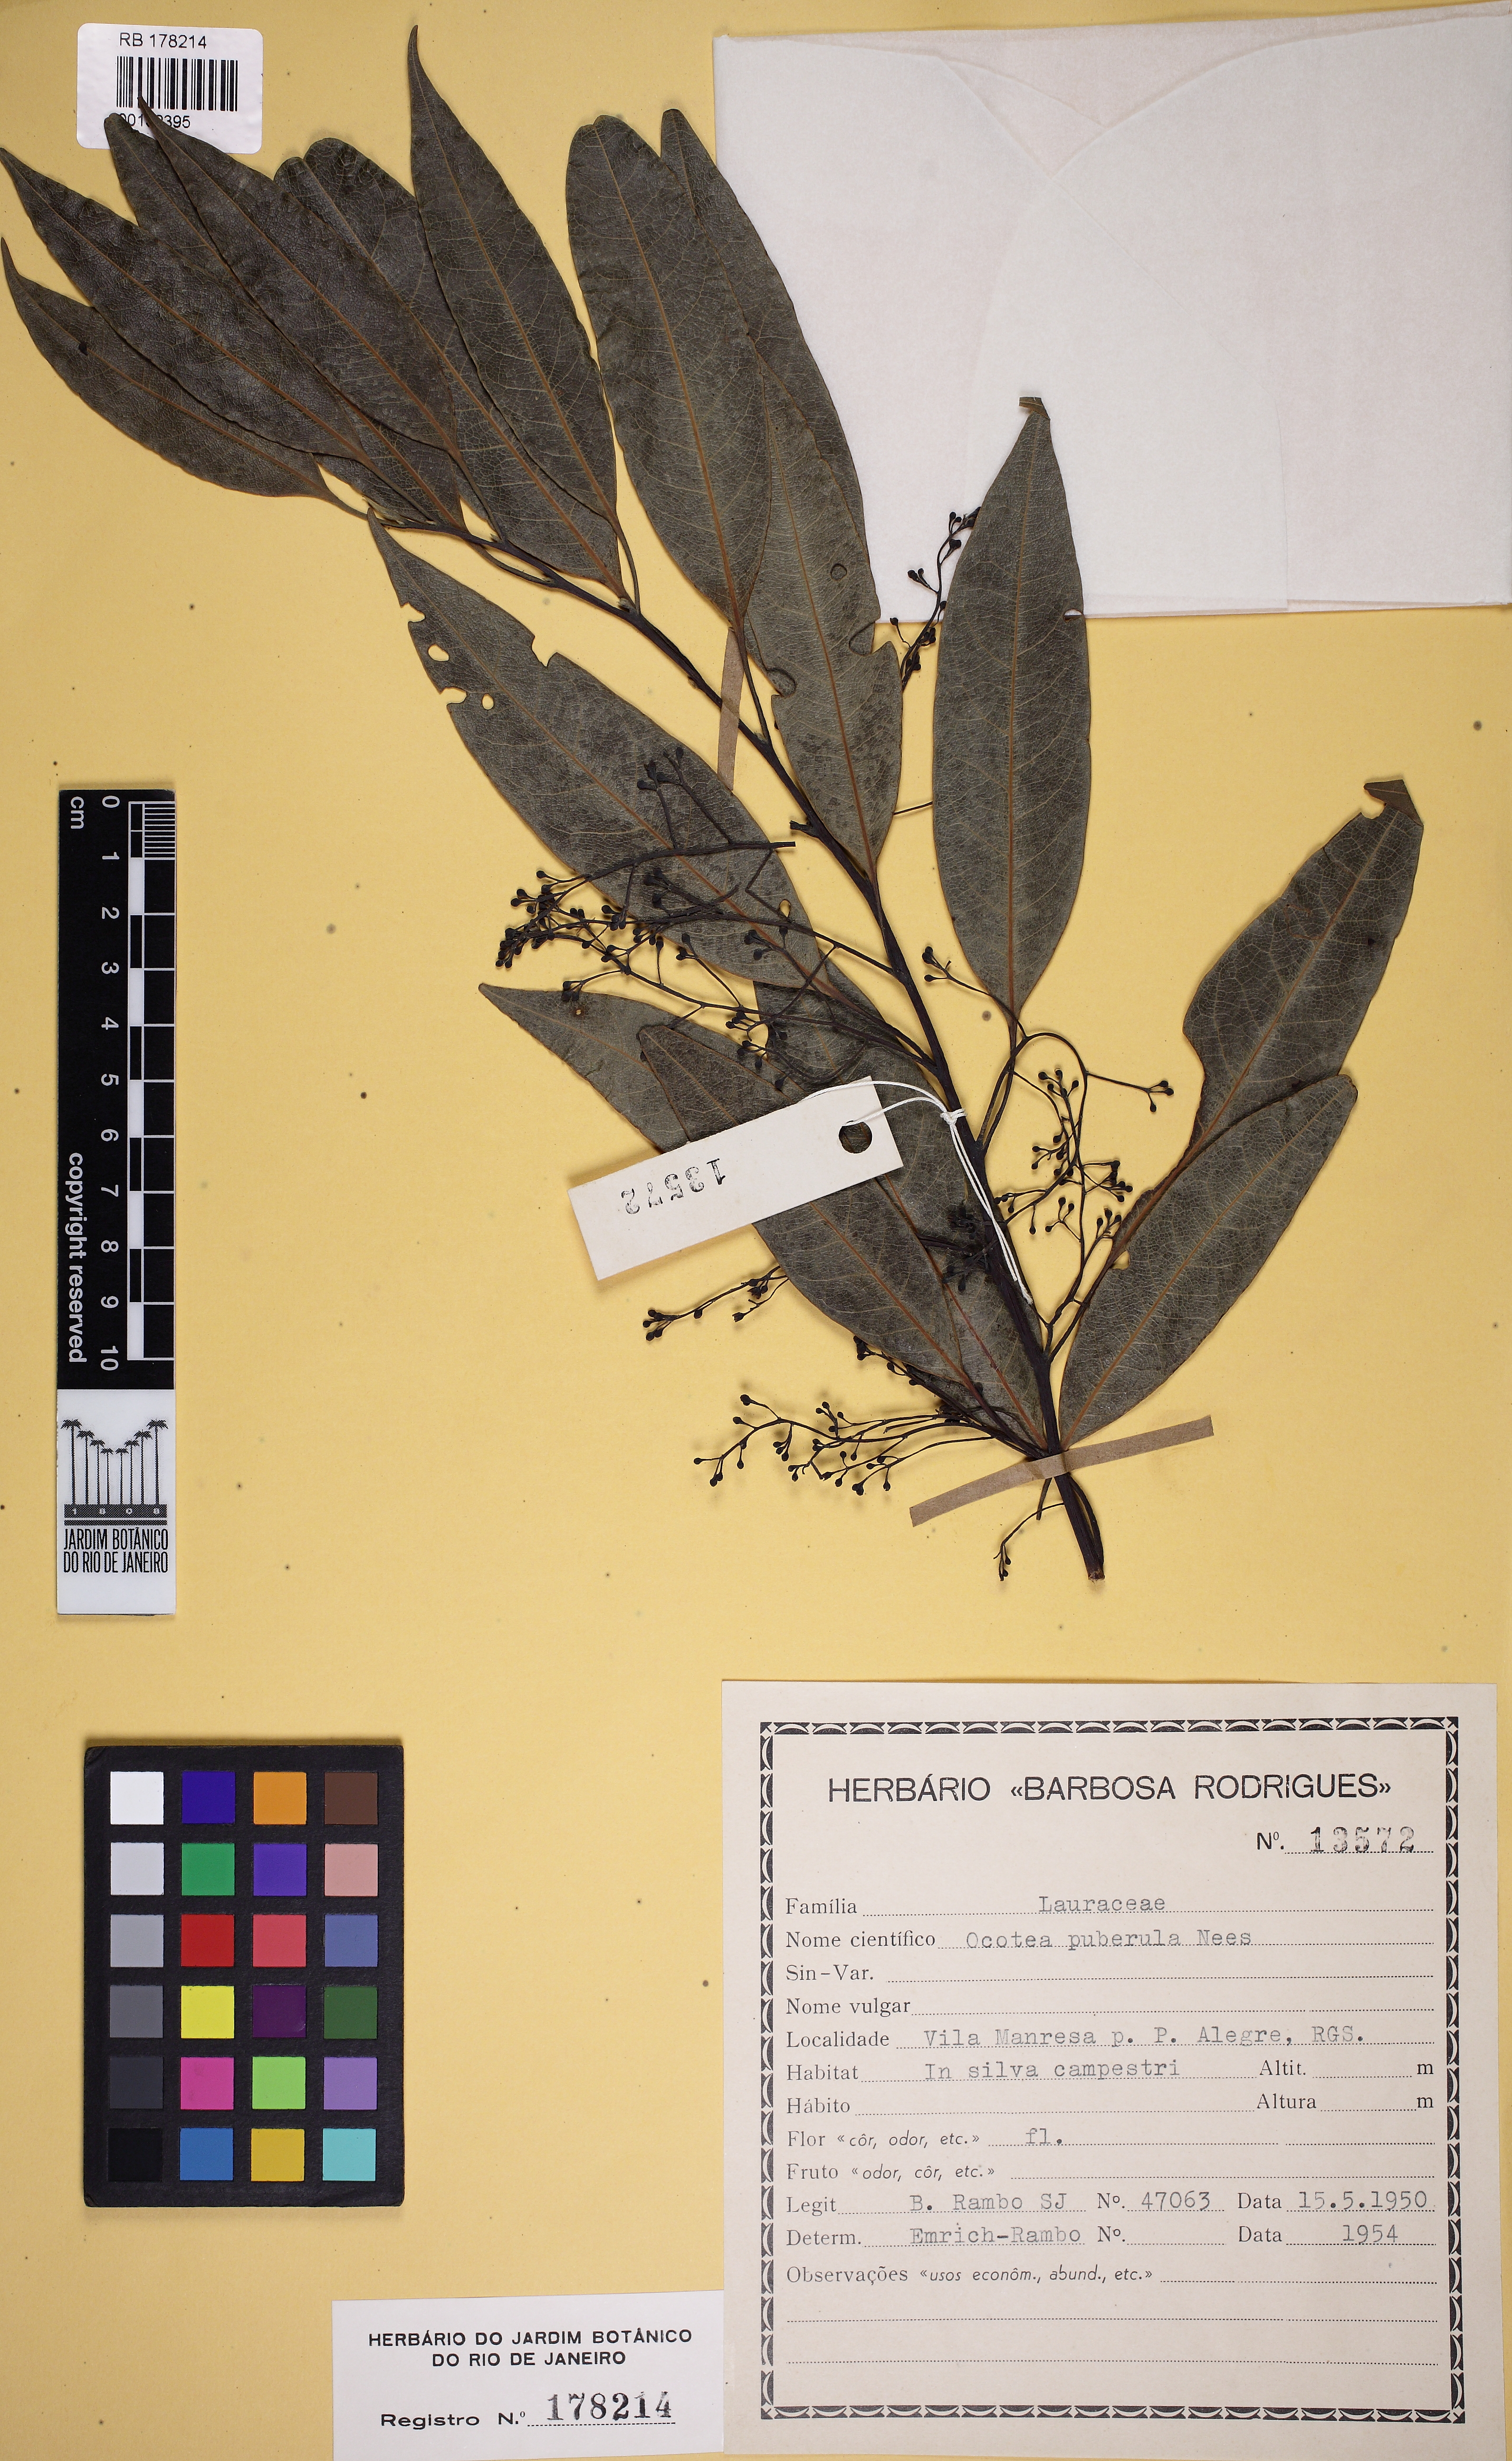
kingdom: Plantae
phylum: Tracheophyta
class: Magnoliopsida
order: Laurales
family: Lauraceae
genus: Ocotea
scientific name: Ocotea puberula
